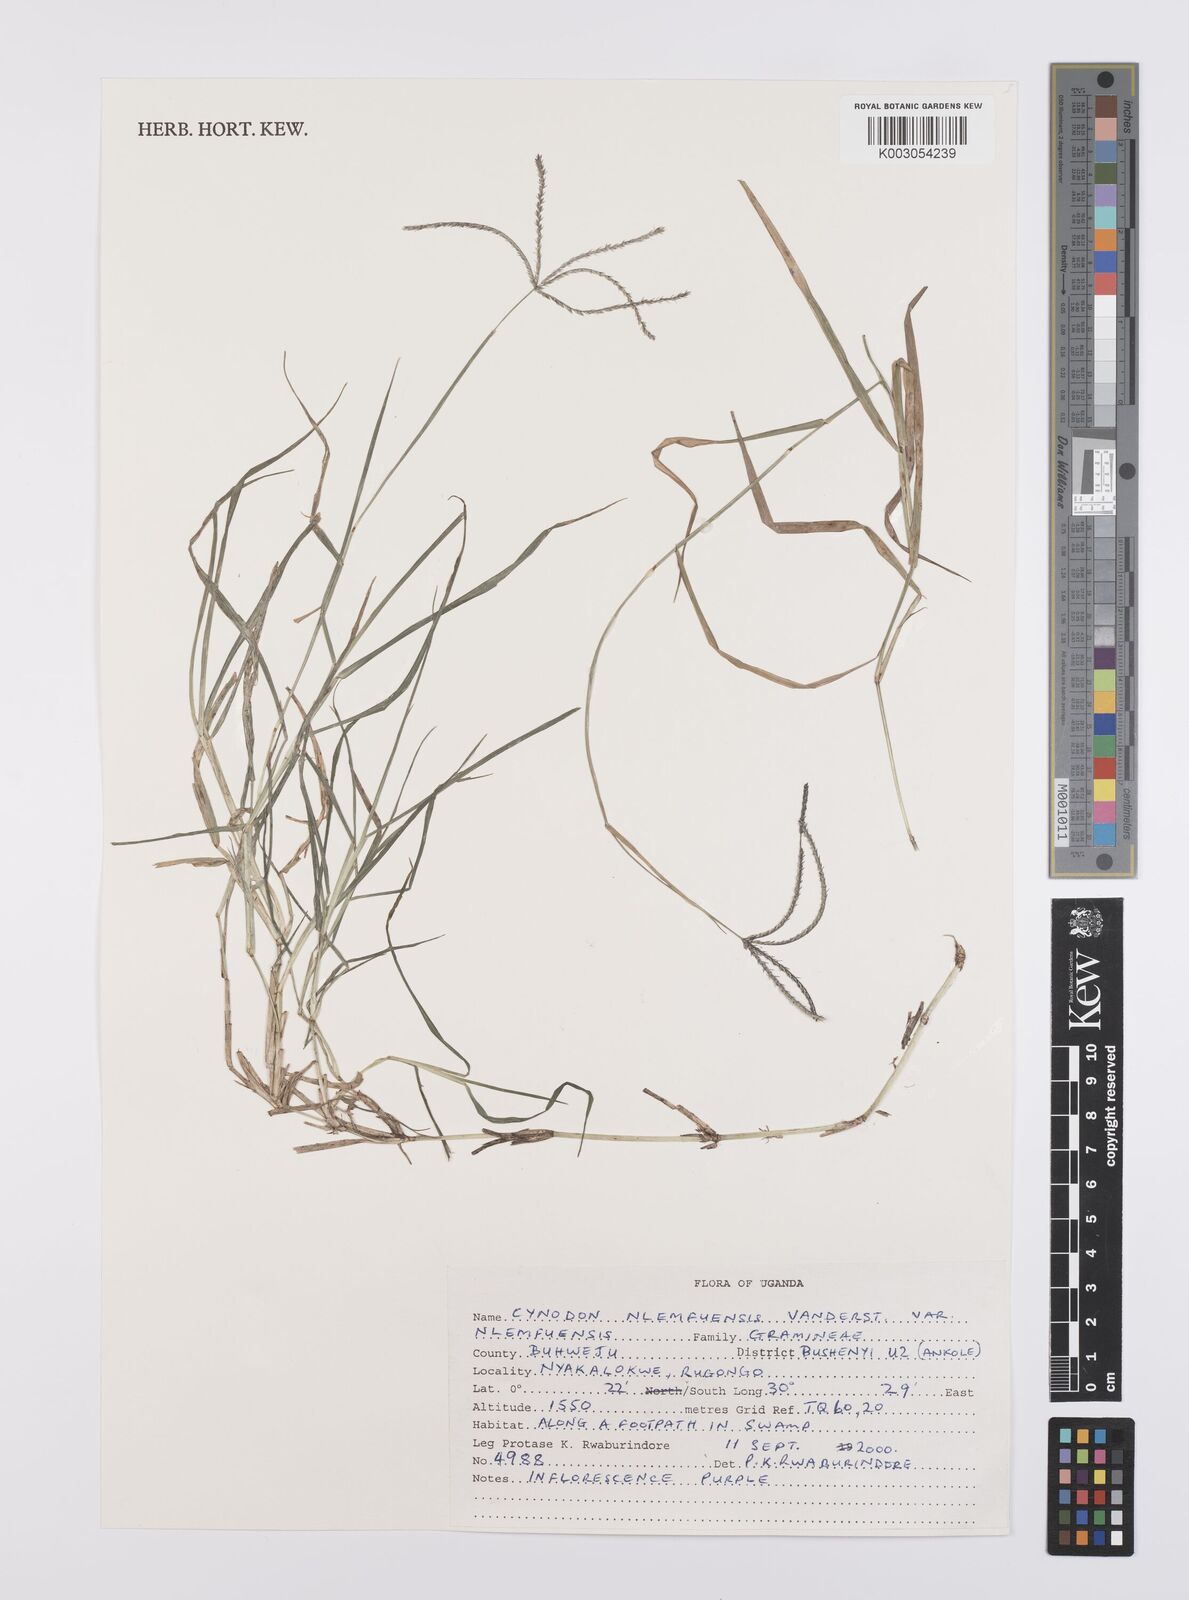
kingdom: Plantae
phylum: Tracheophyta
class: Liliopsida
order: Poales
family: Poaceae
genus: Cynodon
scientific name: Cynodon nlemfuensis
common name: African bermudagrass
